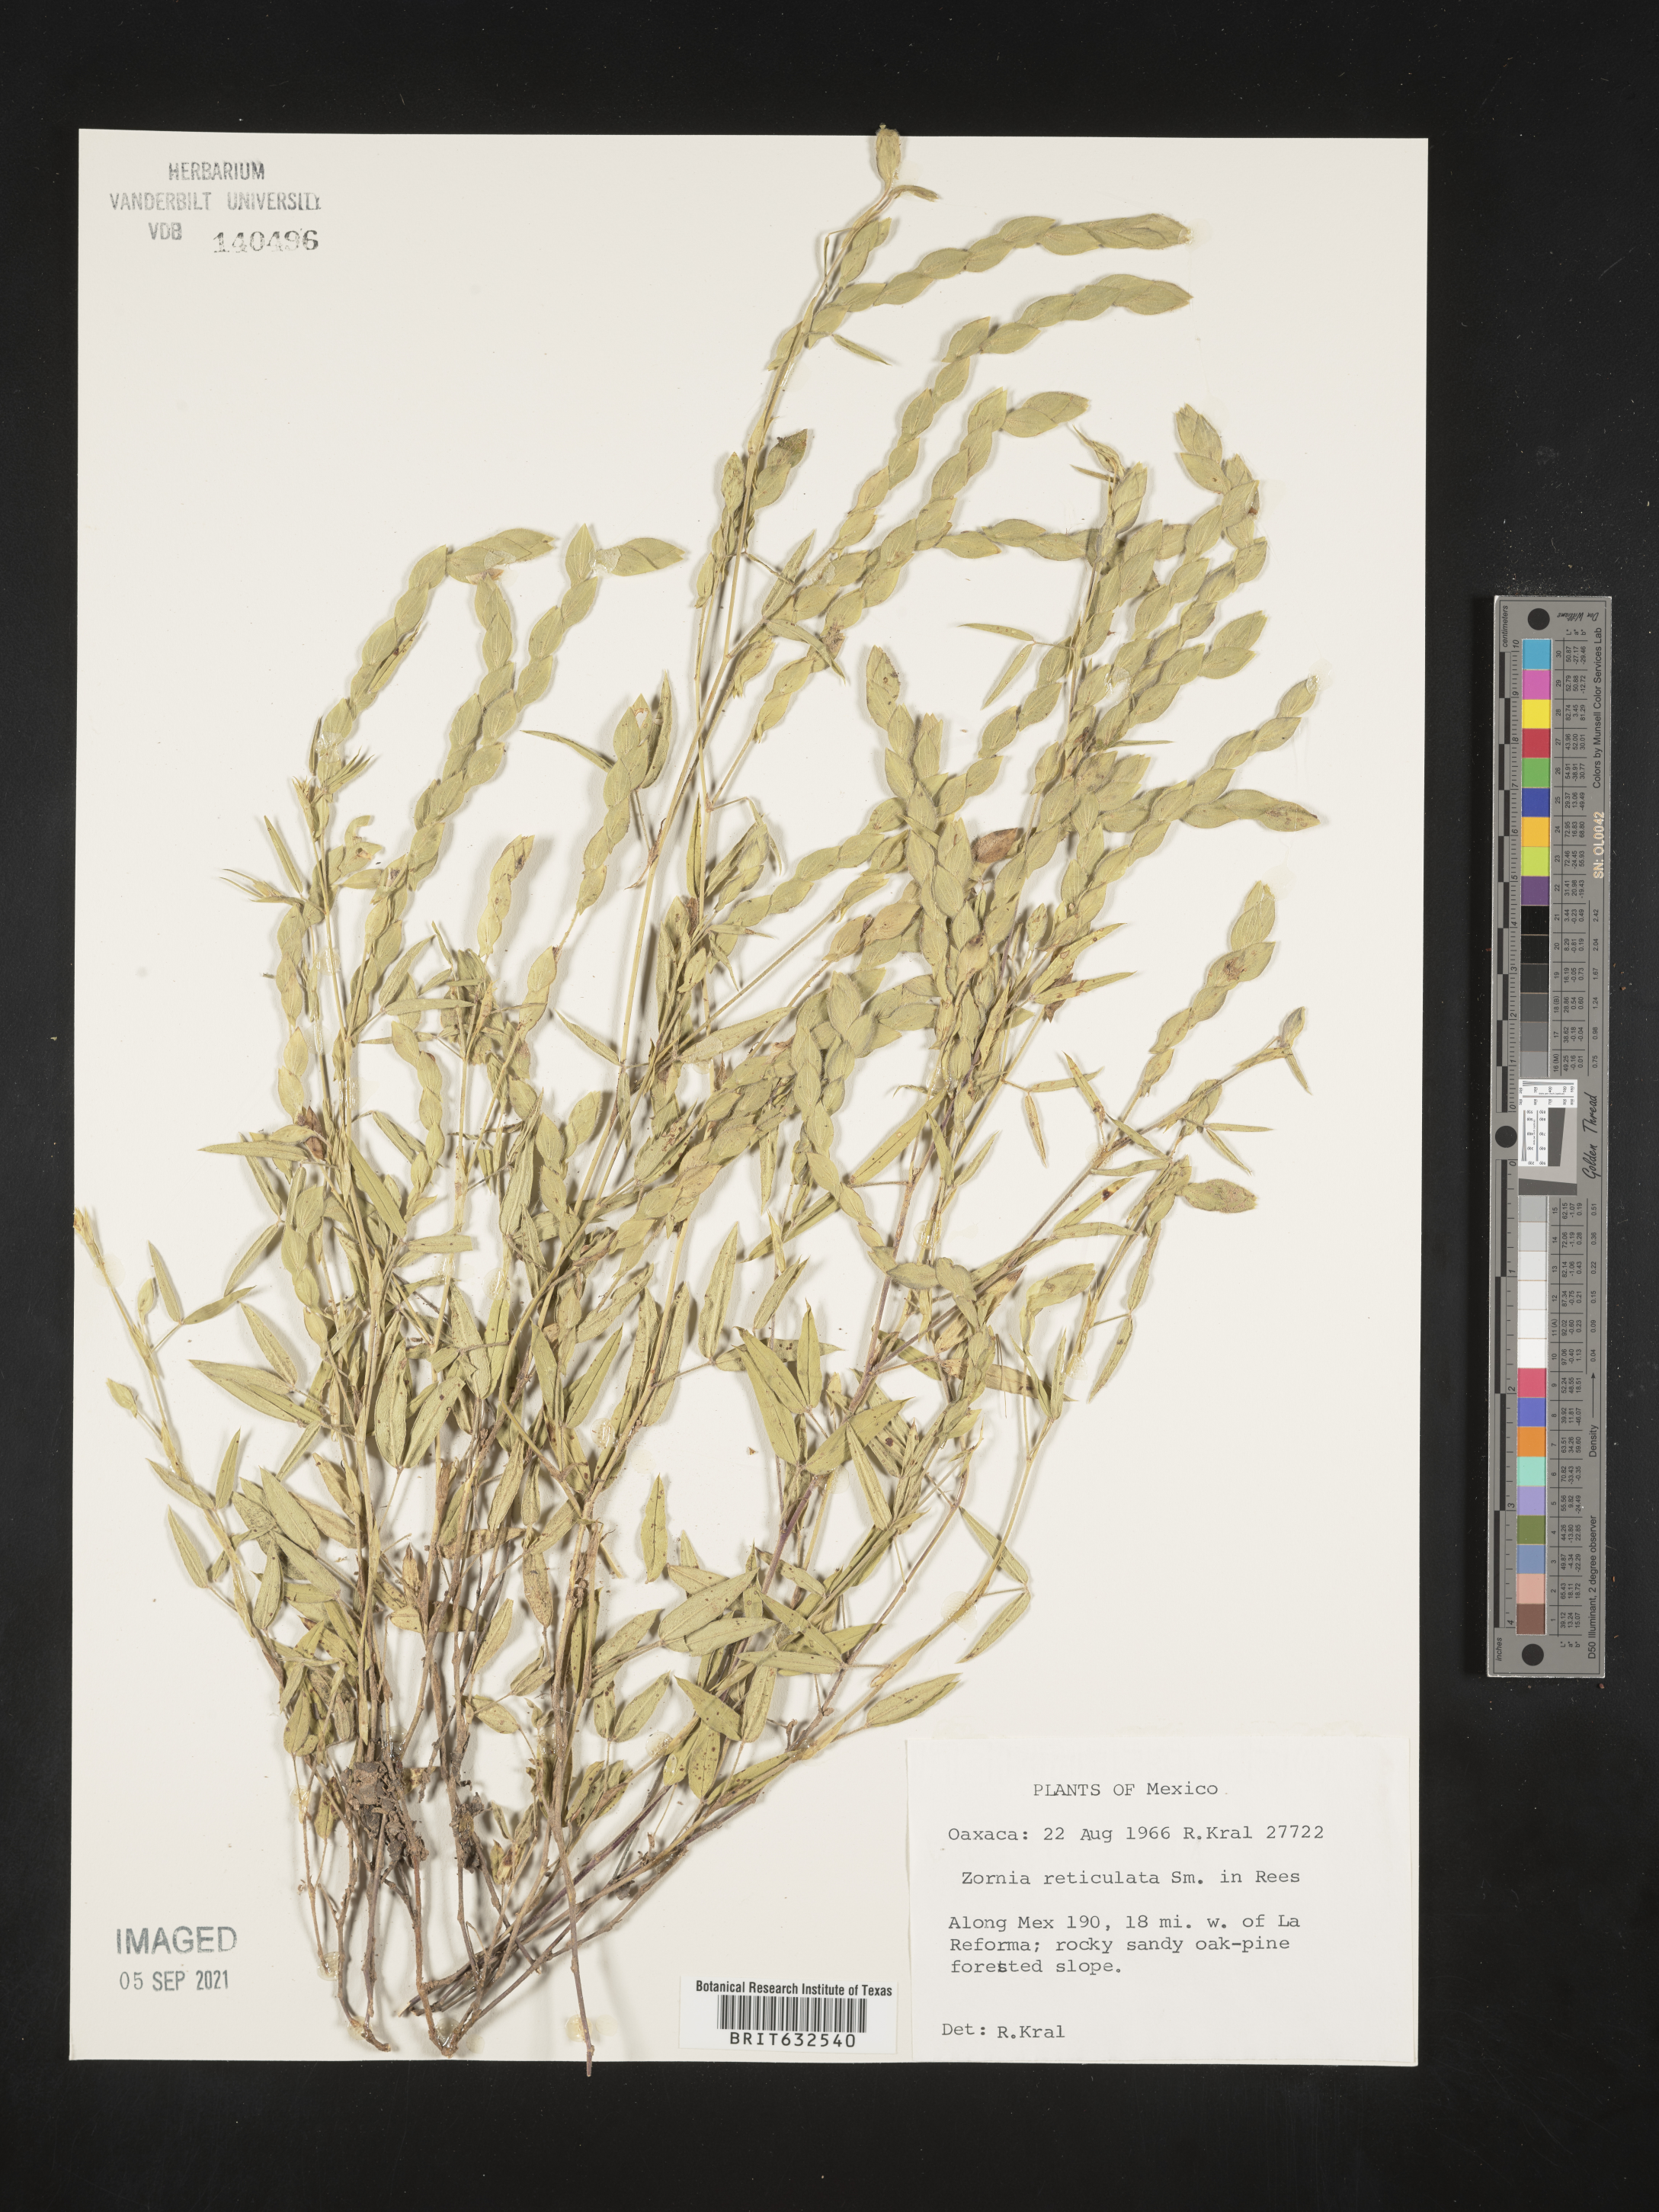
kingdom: Plantae
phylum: Tracheophyta
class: Magnoliopsida
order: Fabales
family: Fabaceae
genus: Zornia
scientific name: Zornia
